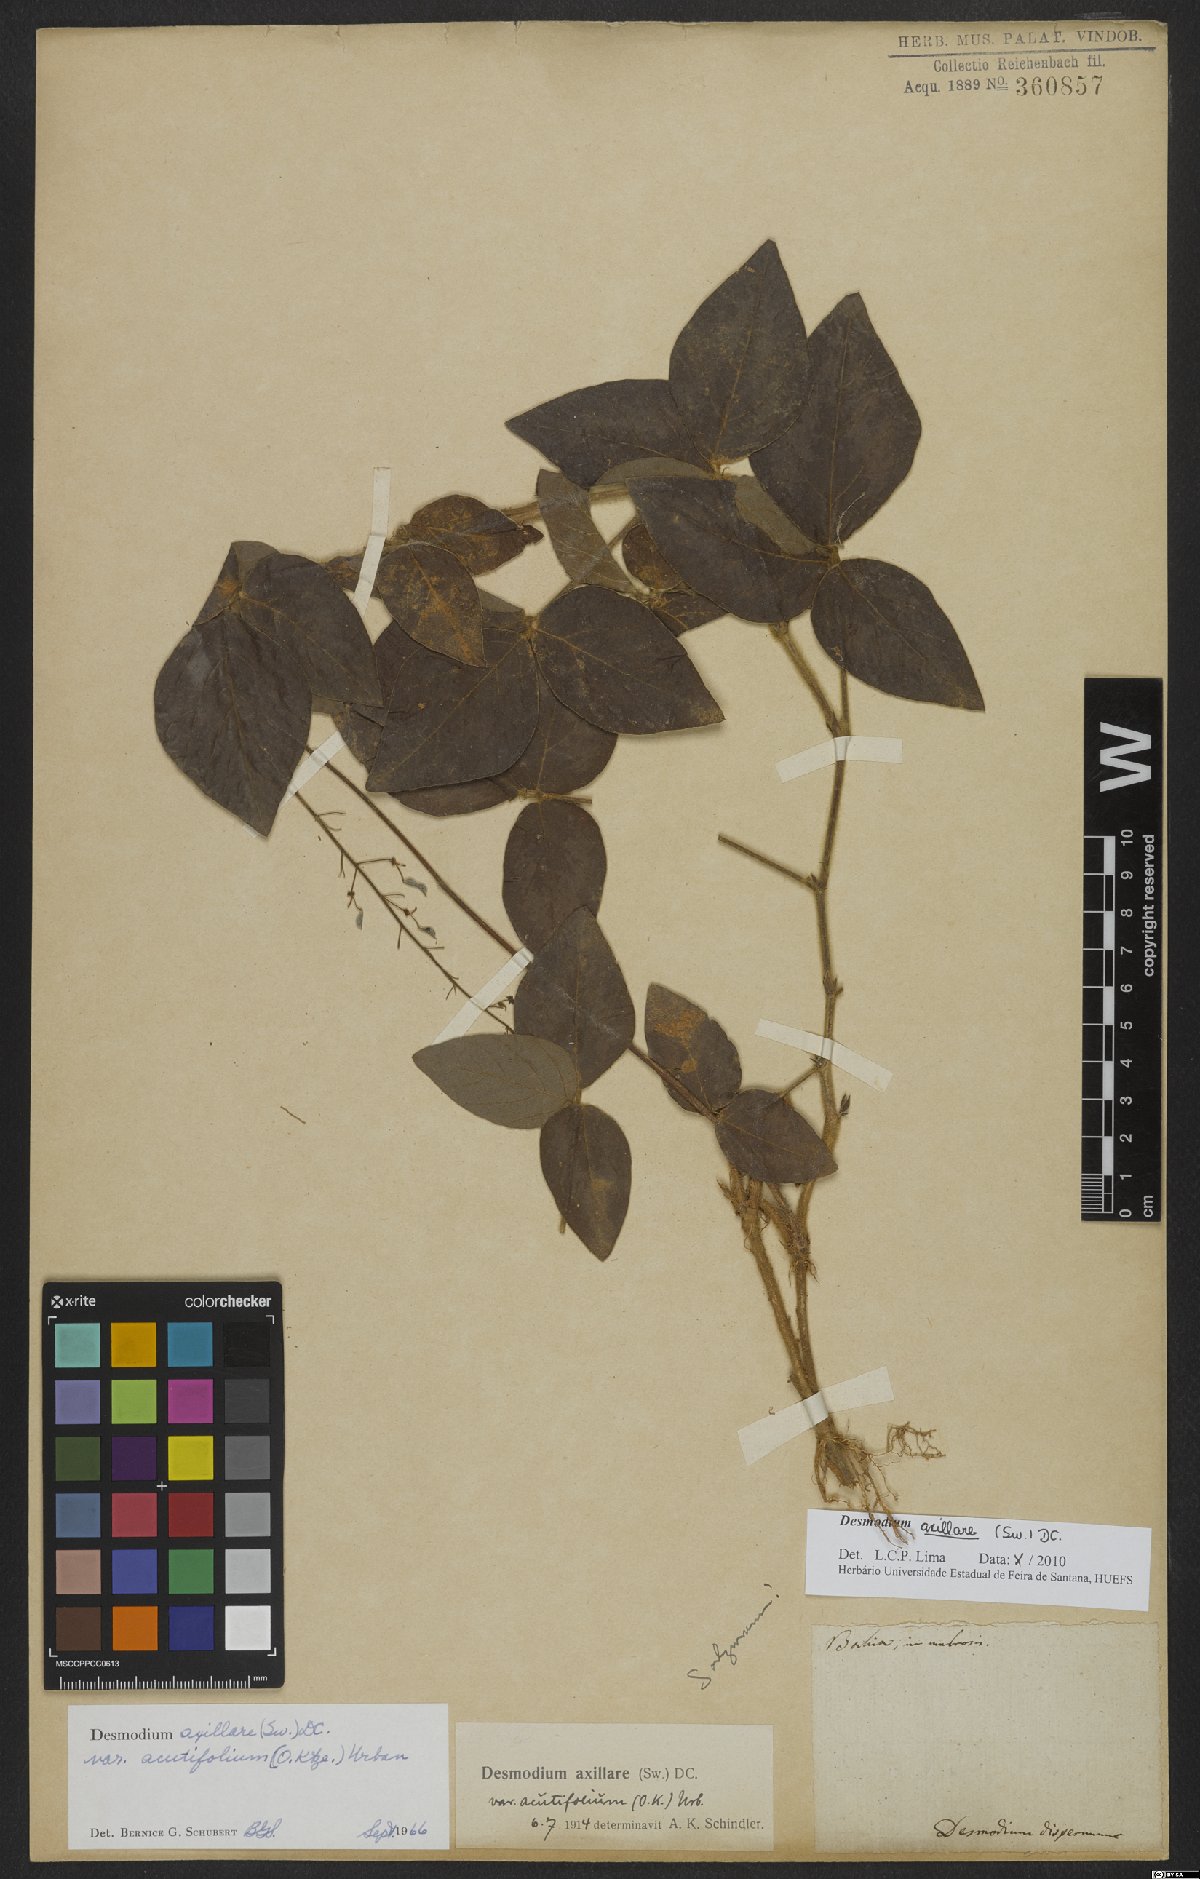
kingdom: Plantae
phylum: Tracheophyta
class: Magnoliopsida
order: Fabales
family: Fabaceae
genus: Desmodium
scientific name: Desmodium axillare
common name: Wire with
